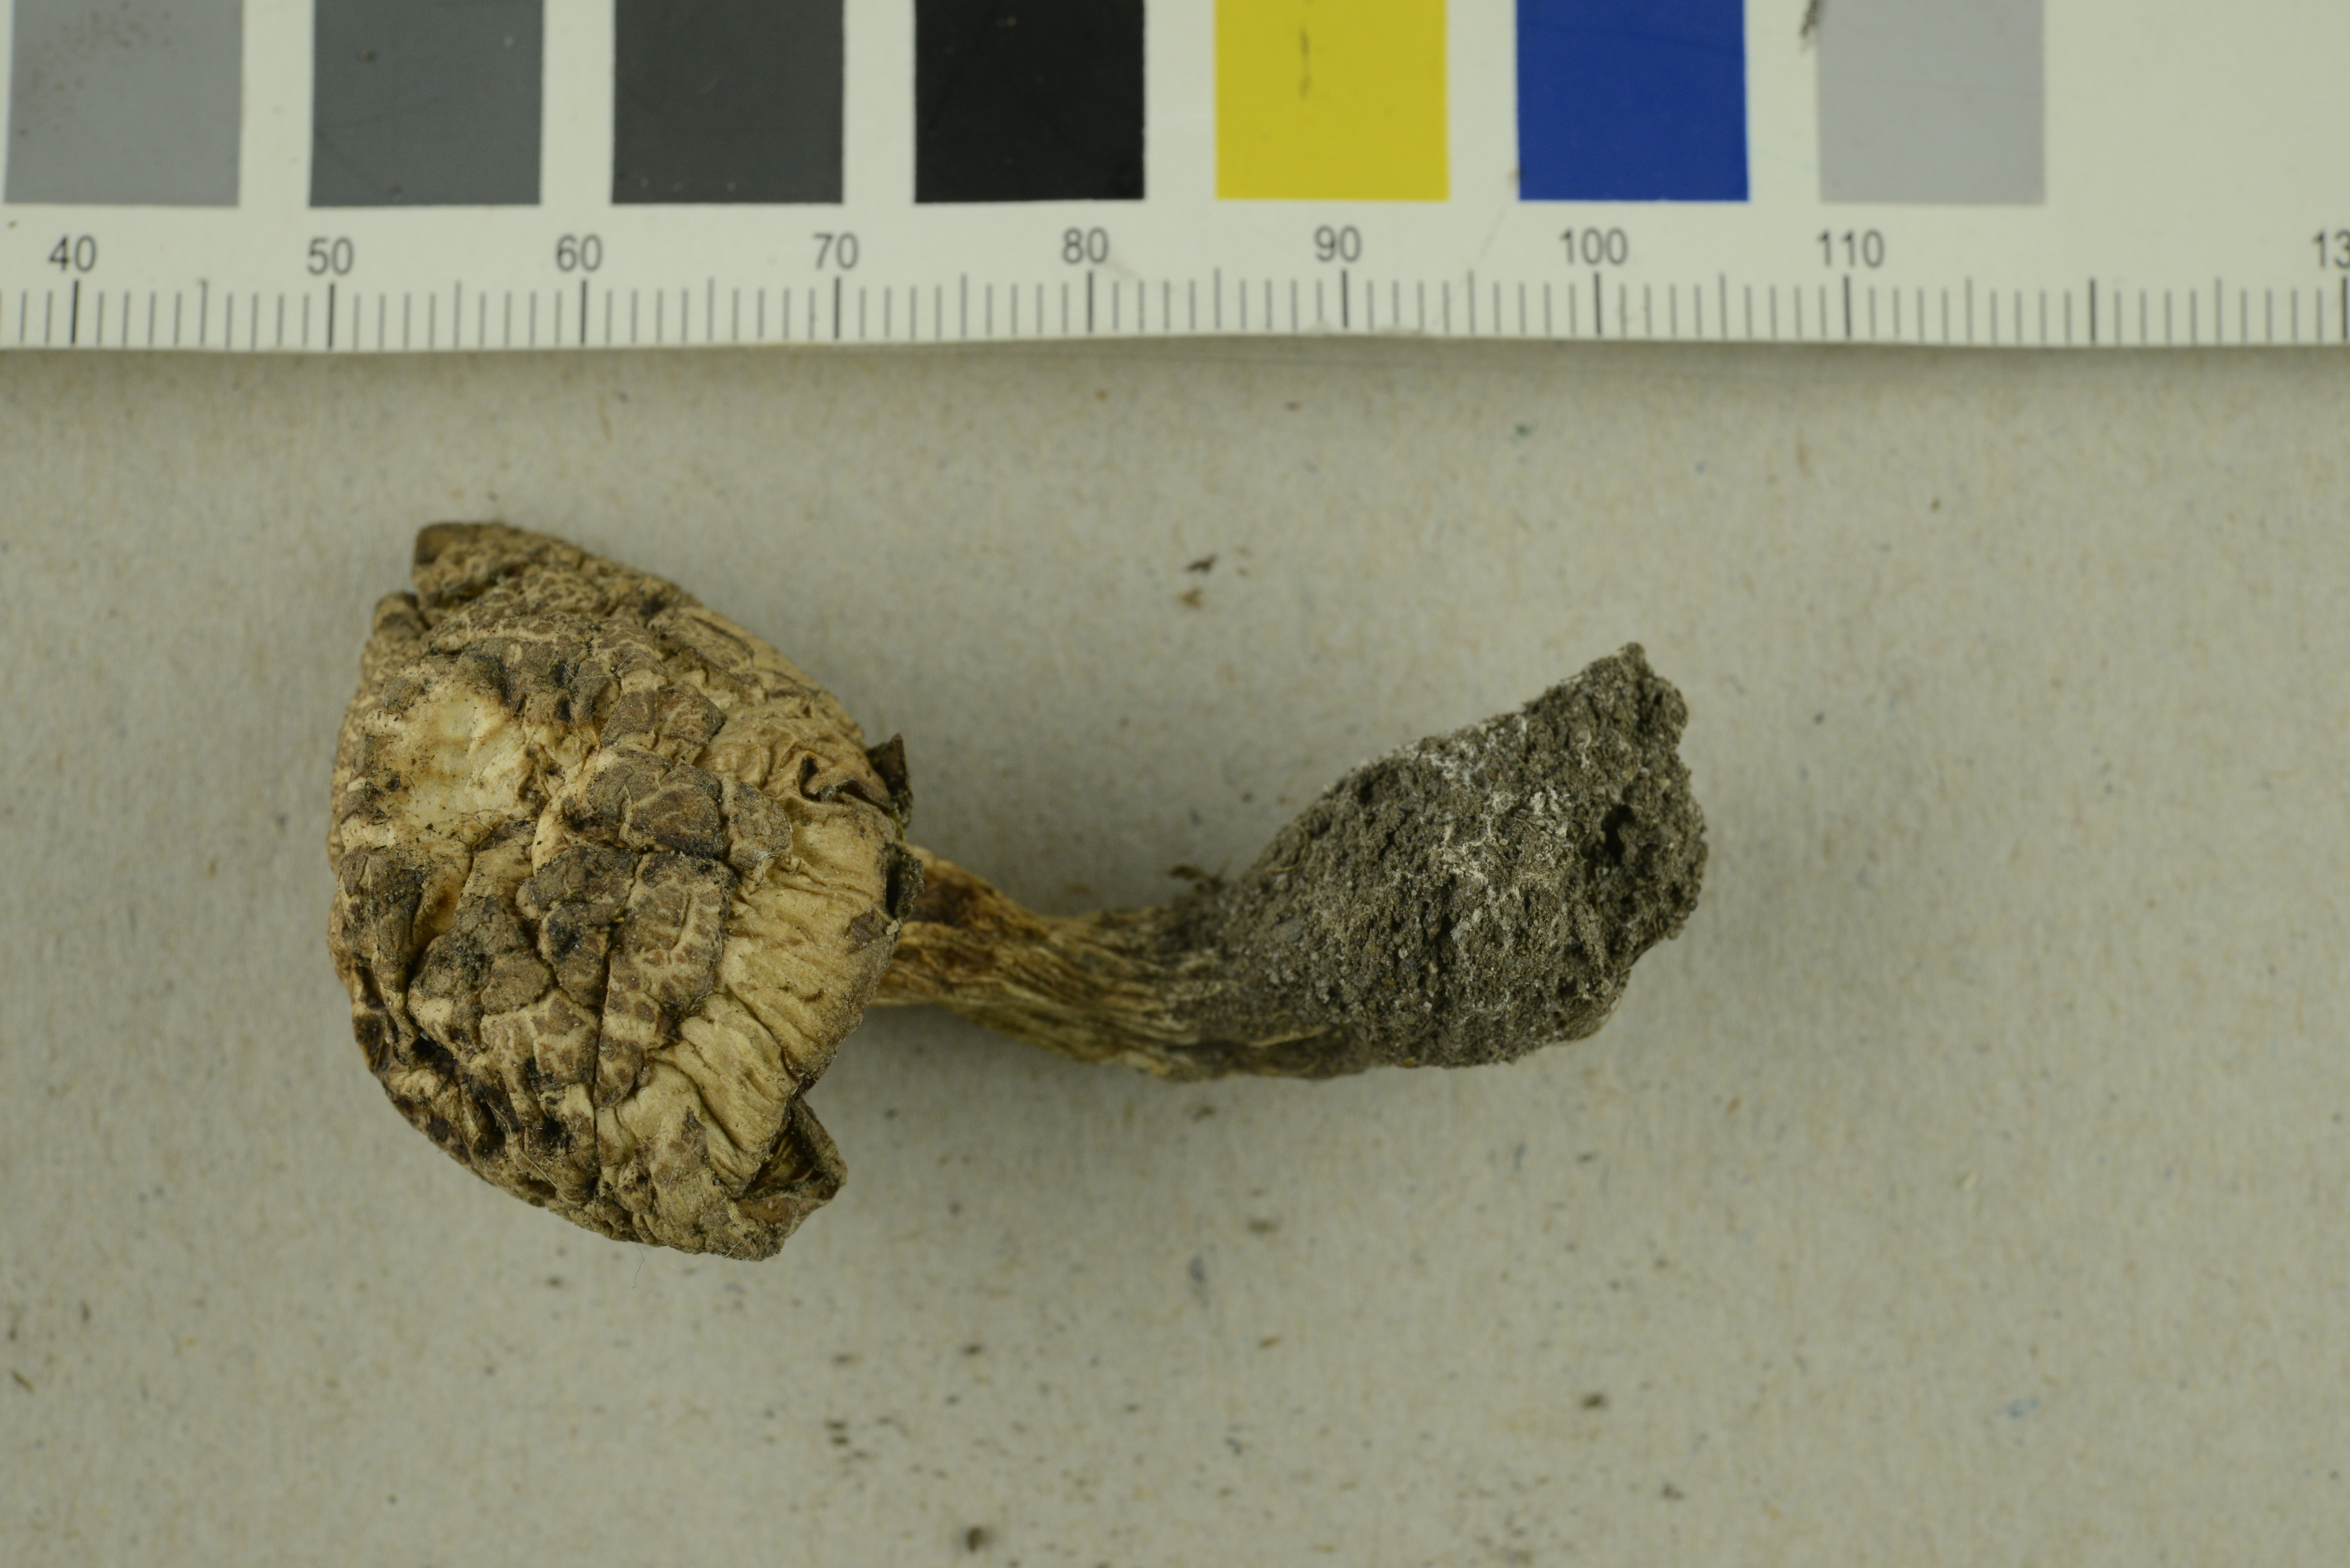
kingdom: Fungi
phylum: Basidiomycota
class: Agaricomycetes
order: Agaricales
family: Entolomataceae
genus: Entoloma
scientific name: Entoloma clypeatum
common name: Shield pinkgill
